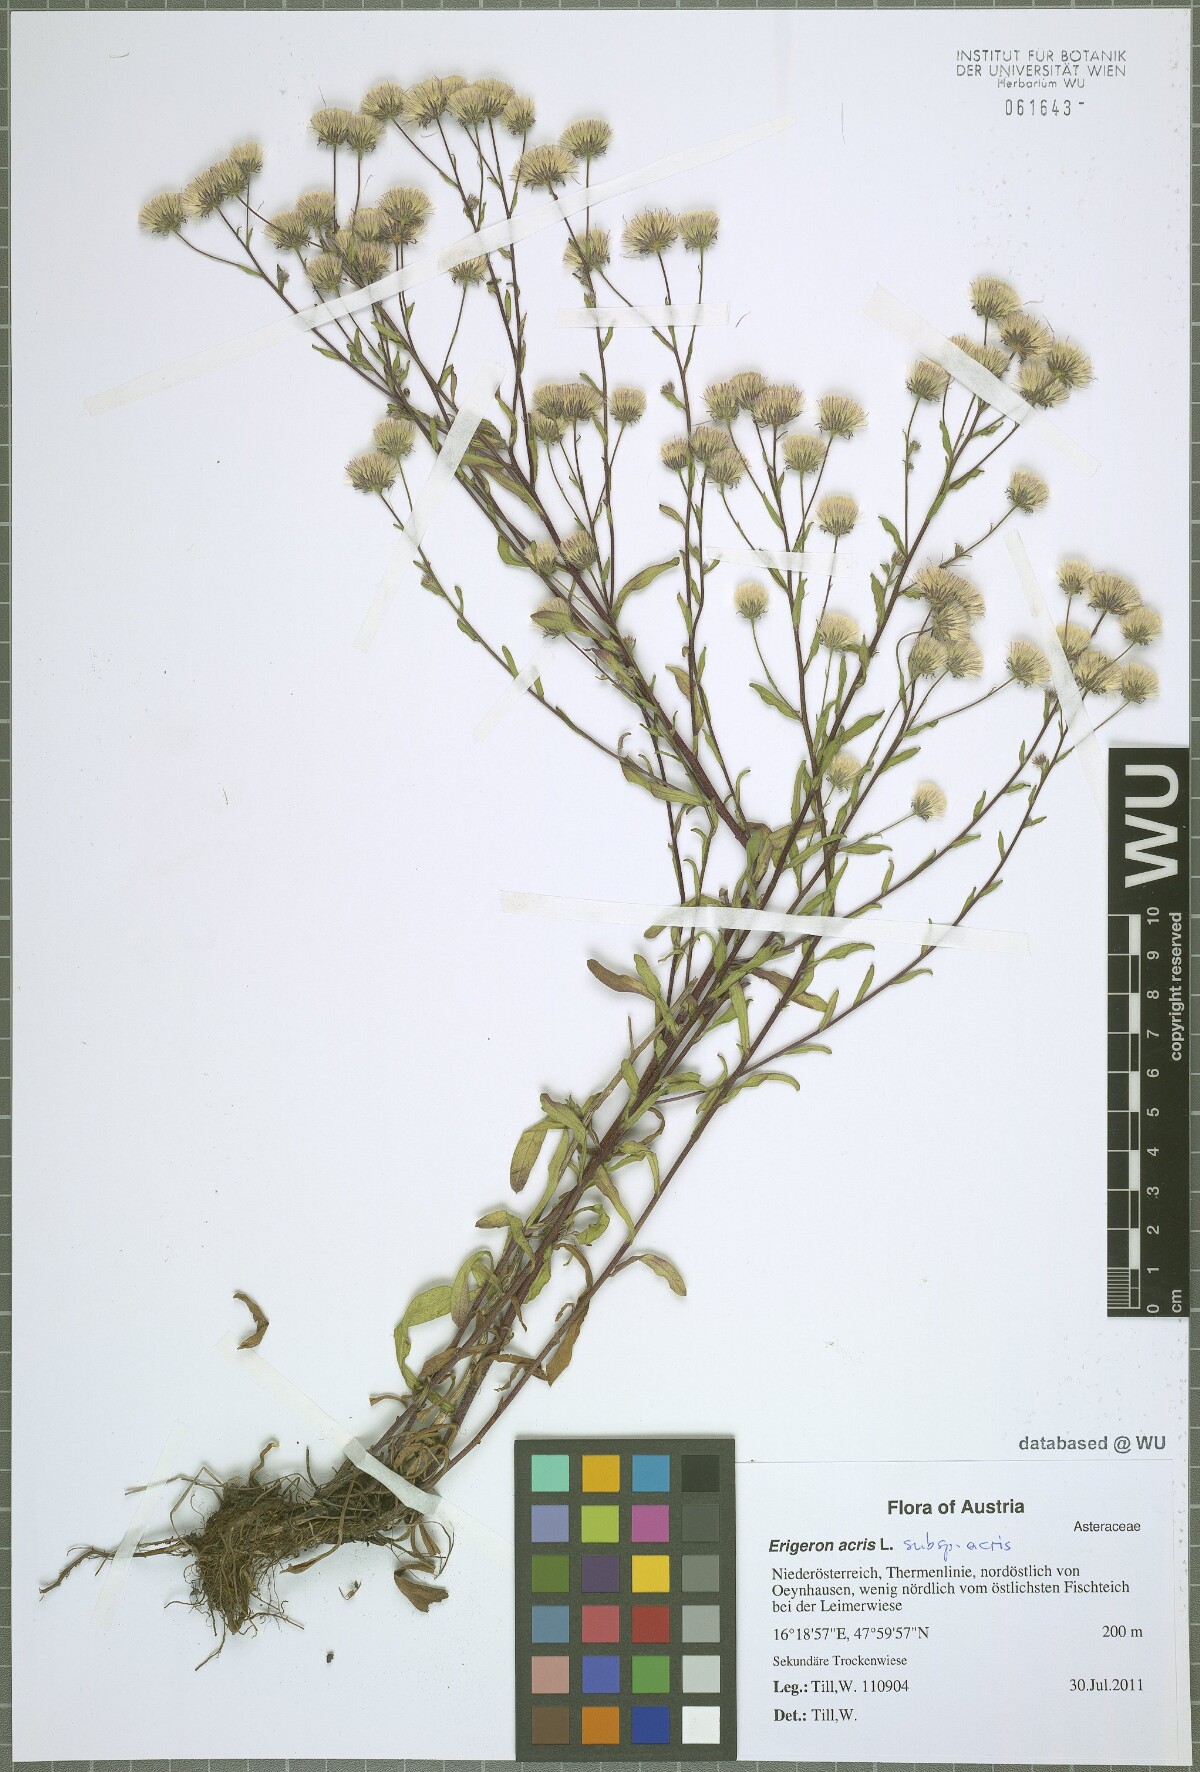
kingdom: Plantae
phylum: Tracheophyta
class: Magnoliopsida
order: Asterales
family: Asteraceae
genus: Erigeron
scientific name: Erigeron acris
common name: Blue fleabane
